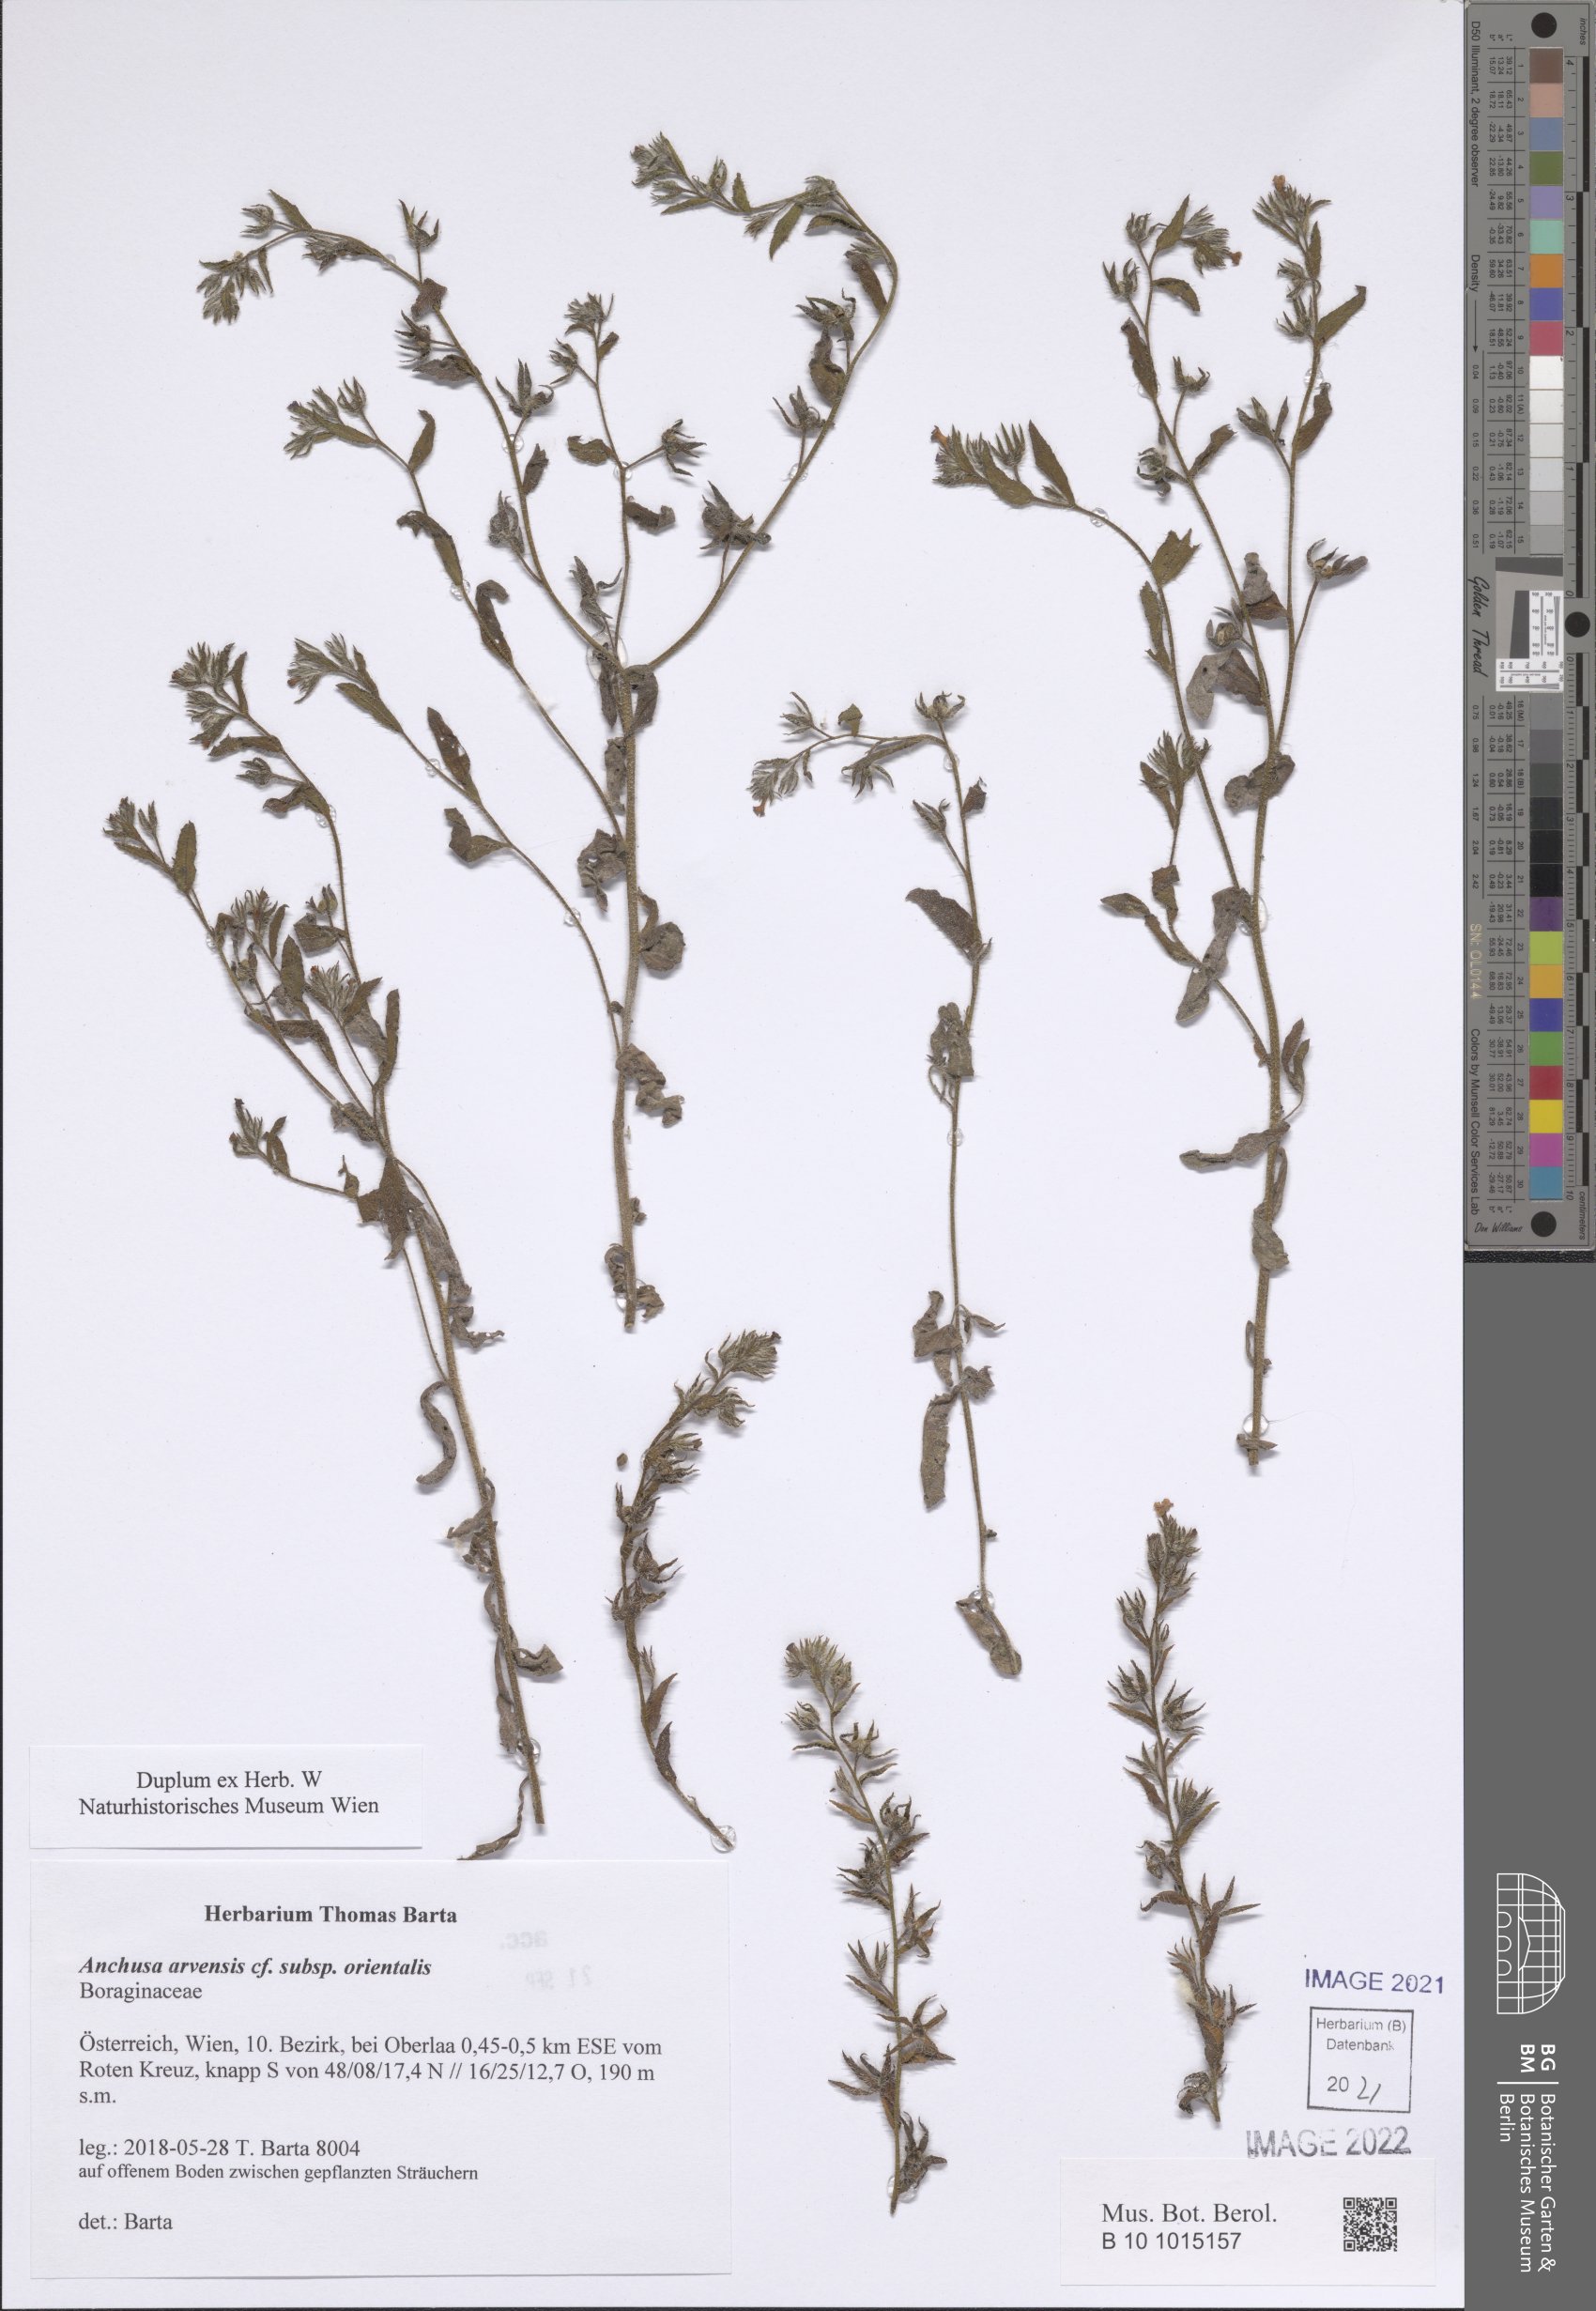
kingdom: Plantae
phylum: Tracheophyta
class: Magnoliopsida
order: Boraginales
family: Boraginaceae
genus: Lycopsis
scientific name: Lycopsis arvensis
